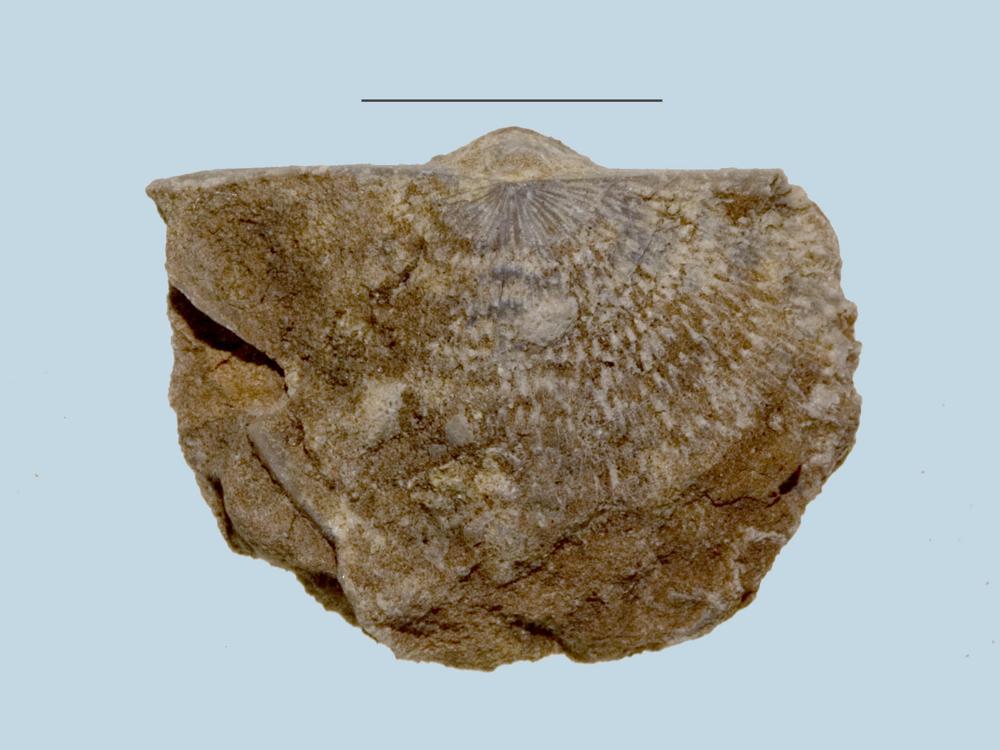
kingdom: Animalia
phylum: Brachiopoda
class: Rhynchonellata
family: Clitambonitidae
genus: Clitambonites
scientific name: Clitambonites squamatus
